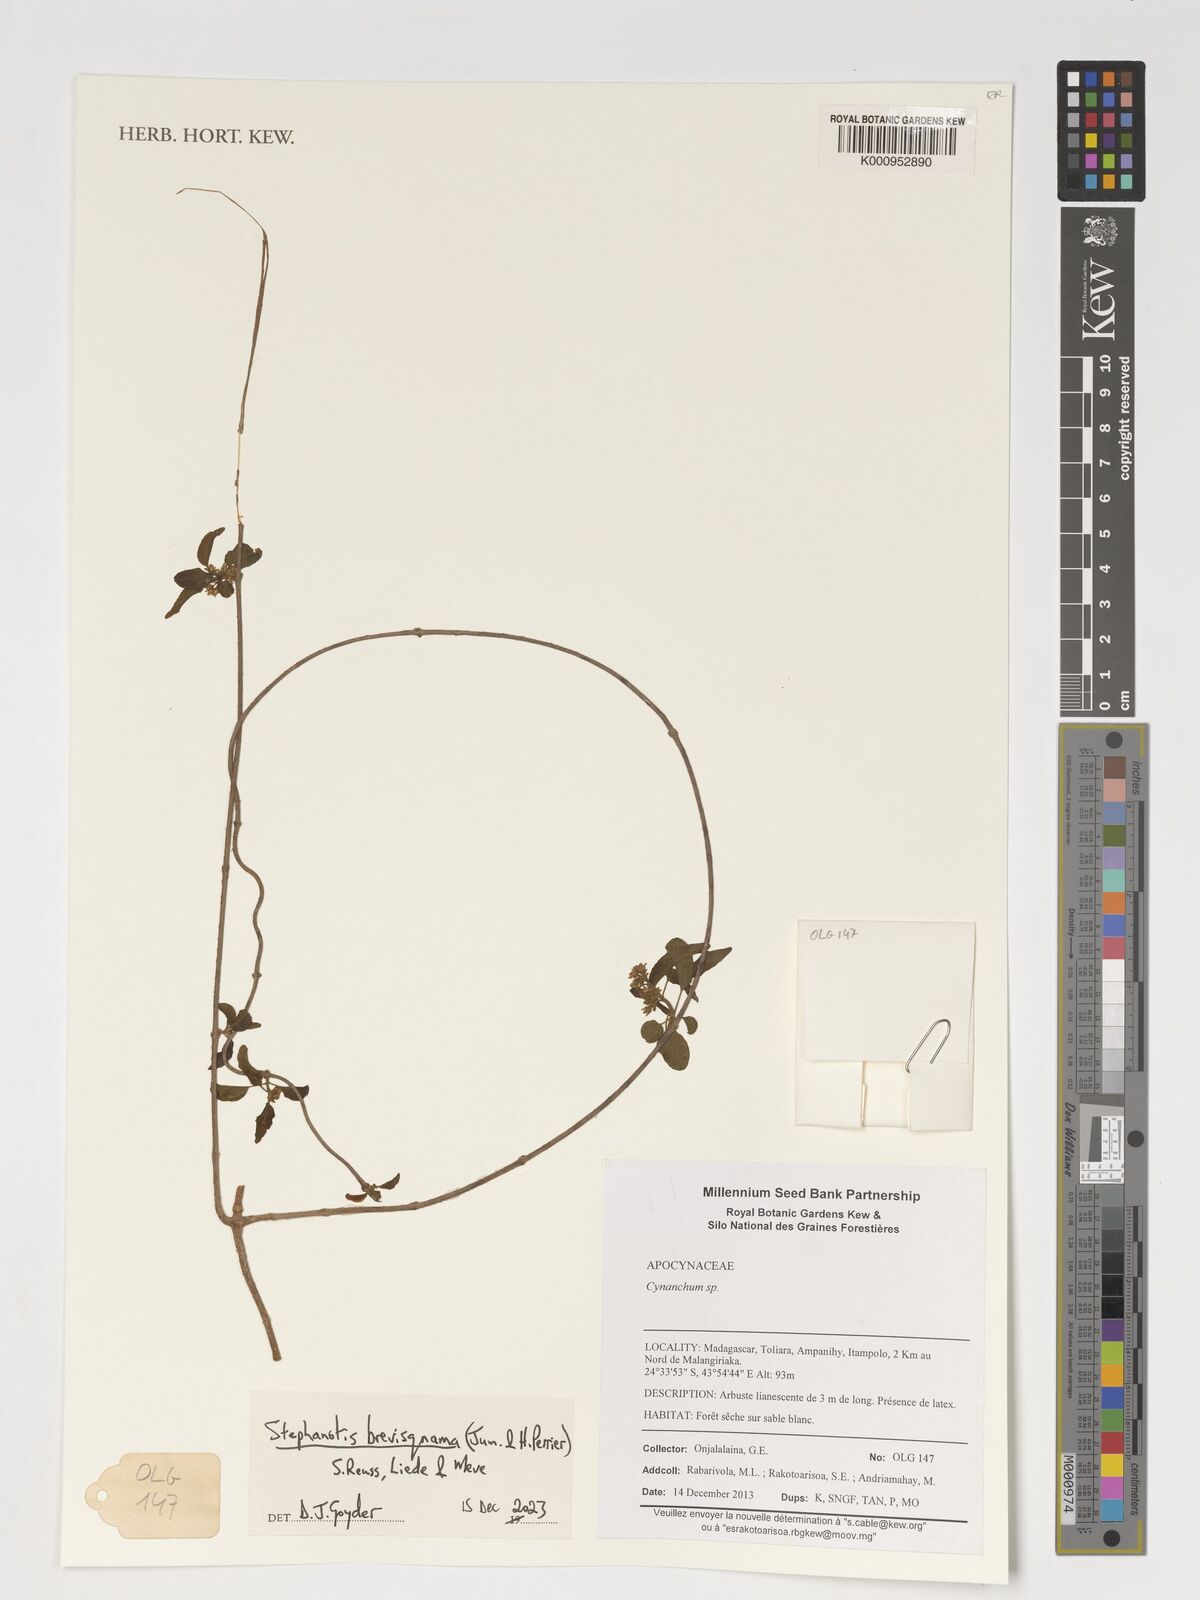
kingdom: Plantae
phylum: Tracheophyta
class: Magnoliopsida
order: Gentianales
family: Apocynaceae
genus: Stephanotis
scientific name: Stephanotis
